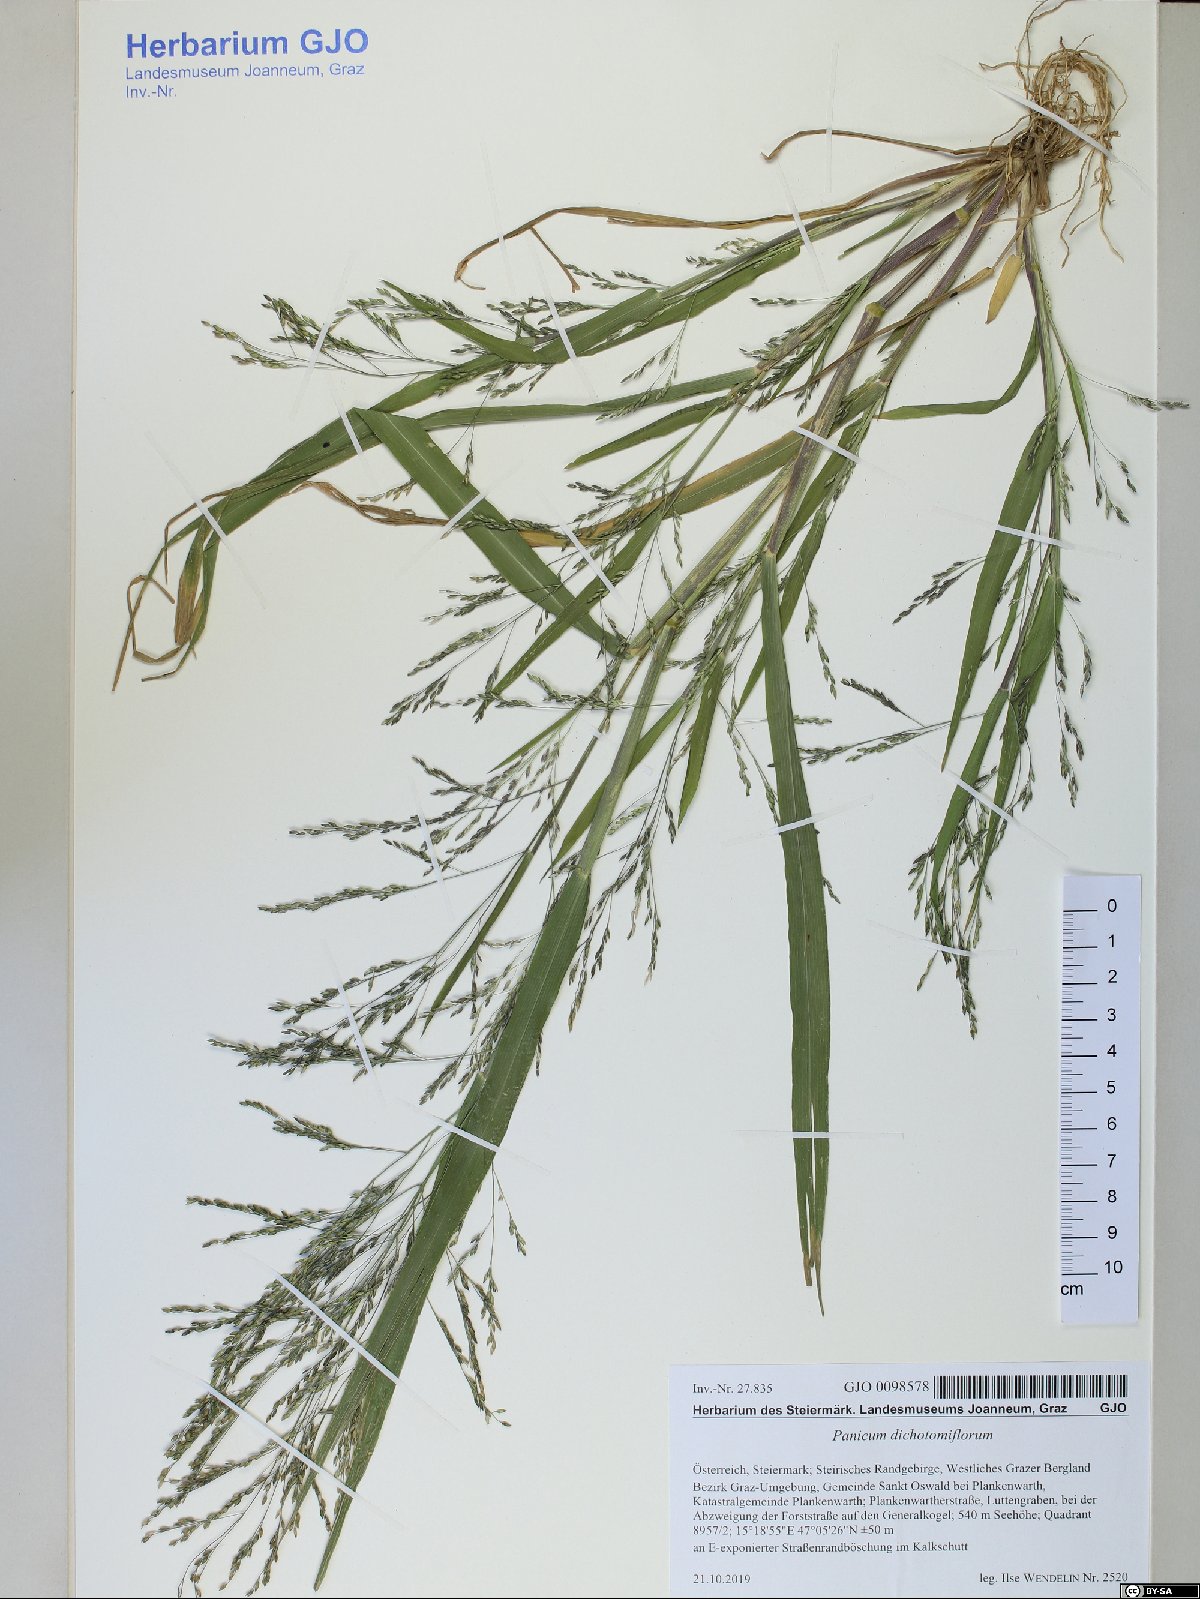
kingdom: Plantae
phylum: Tracheophyta
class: Liliopsida
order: Poales
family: Poaceae
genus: Panicum
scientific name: Panicum dichotomiflorum
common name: Autumn millet
